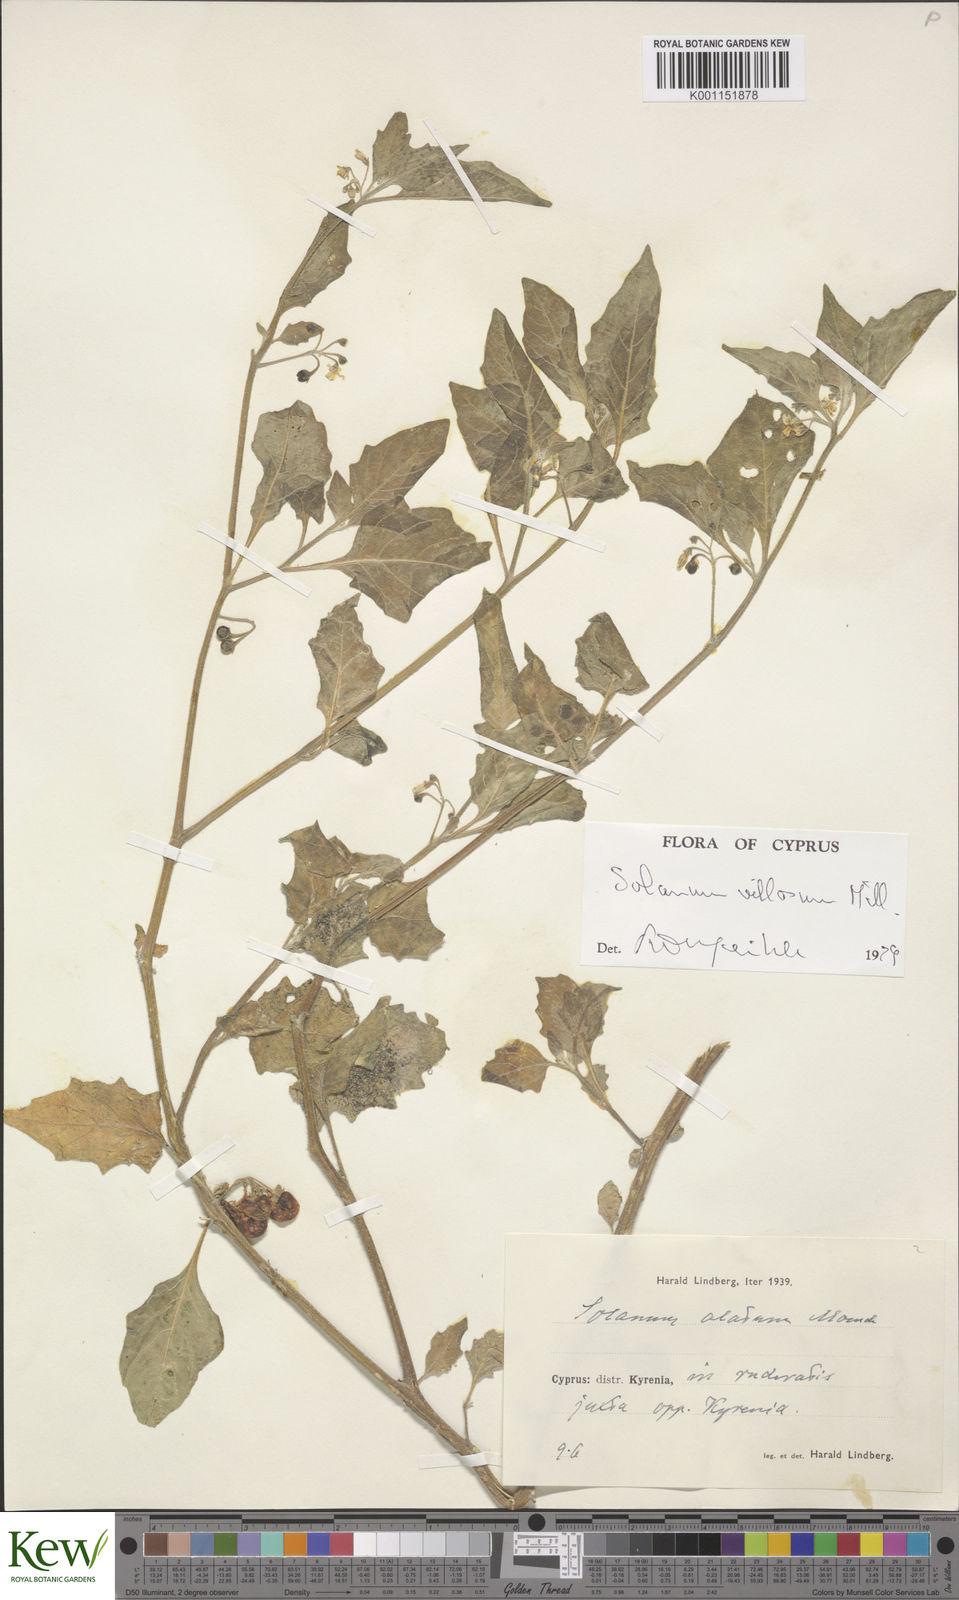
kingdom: Plantae
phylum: Tracheophyta
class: Magnoliopsida
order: Solanales
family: Solanaceae
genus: Solanum
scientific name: Solanum villosum
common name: Red nightshade
